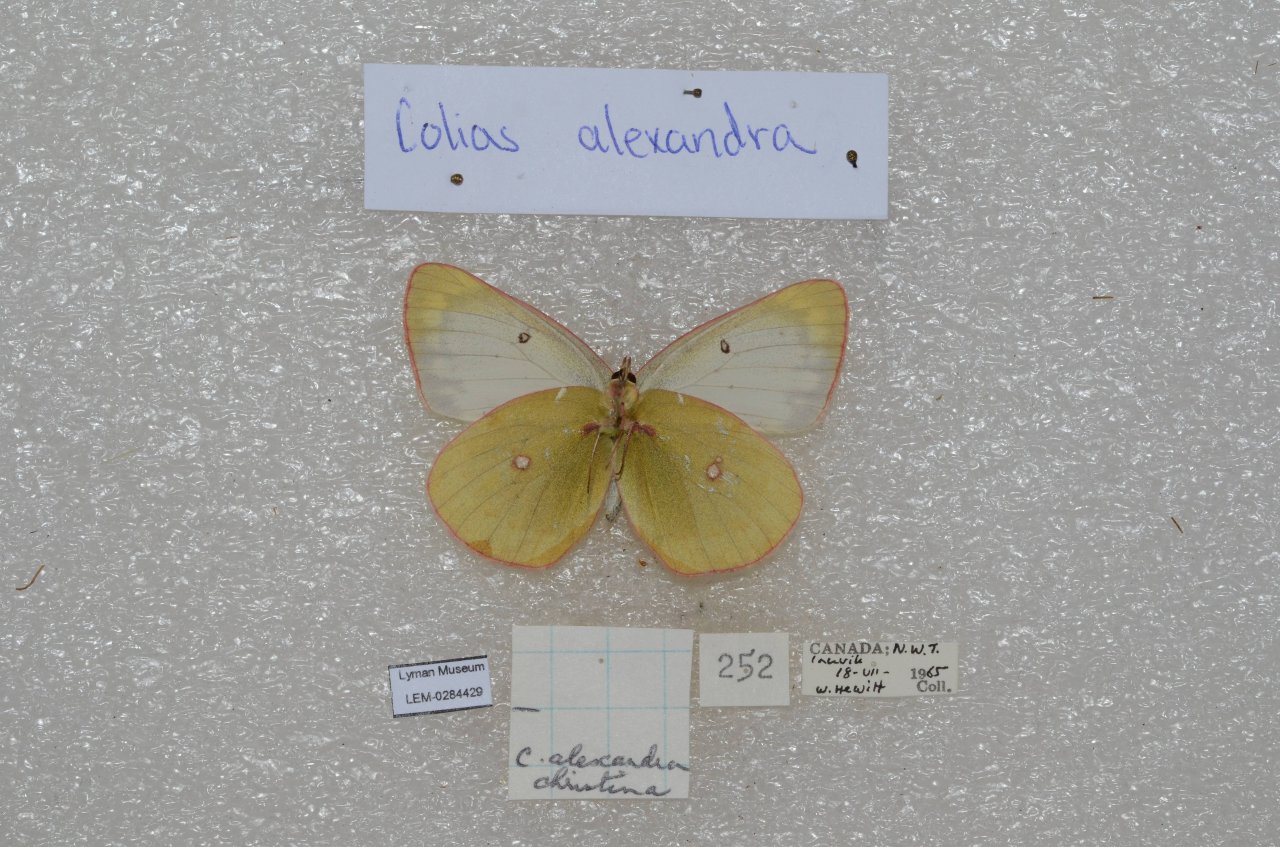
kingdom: Animalia
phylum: Arthropoda
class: Insecta
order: Lepidoptera
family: Pieridae
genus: Colias
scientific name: Colias pelidne
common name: Pelidne Sulphur
